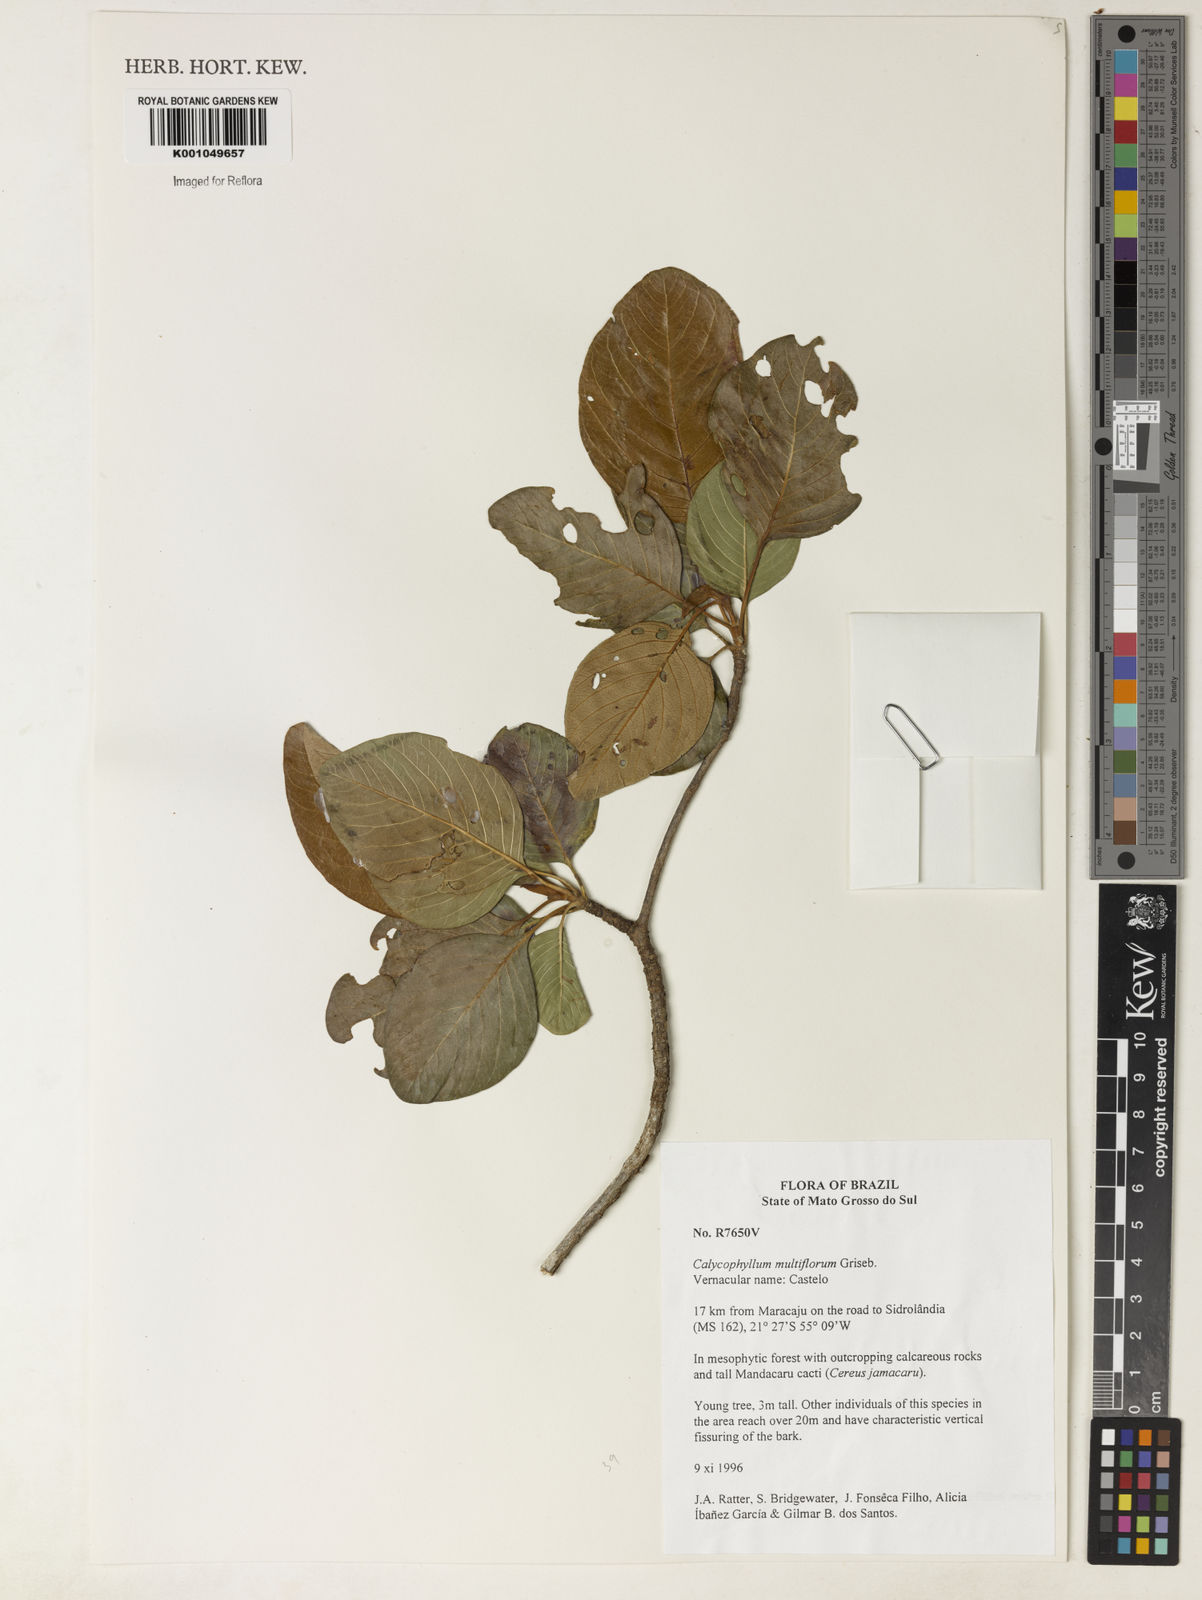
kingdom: Plantae
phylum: Tracheophyta
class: Magnoliopsida
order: Gentianales
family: Rubiaceae
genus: Calycophyllum
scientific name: Calycophyllum multiflorum
